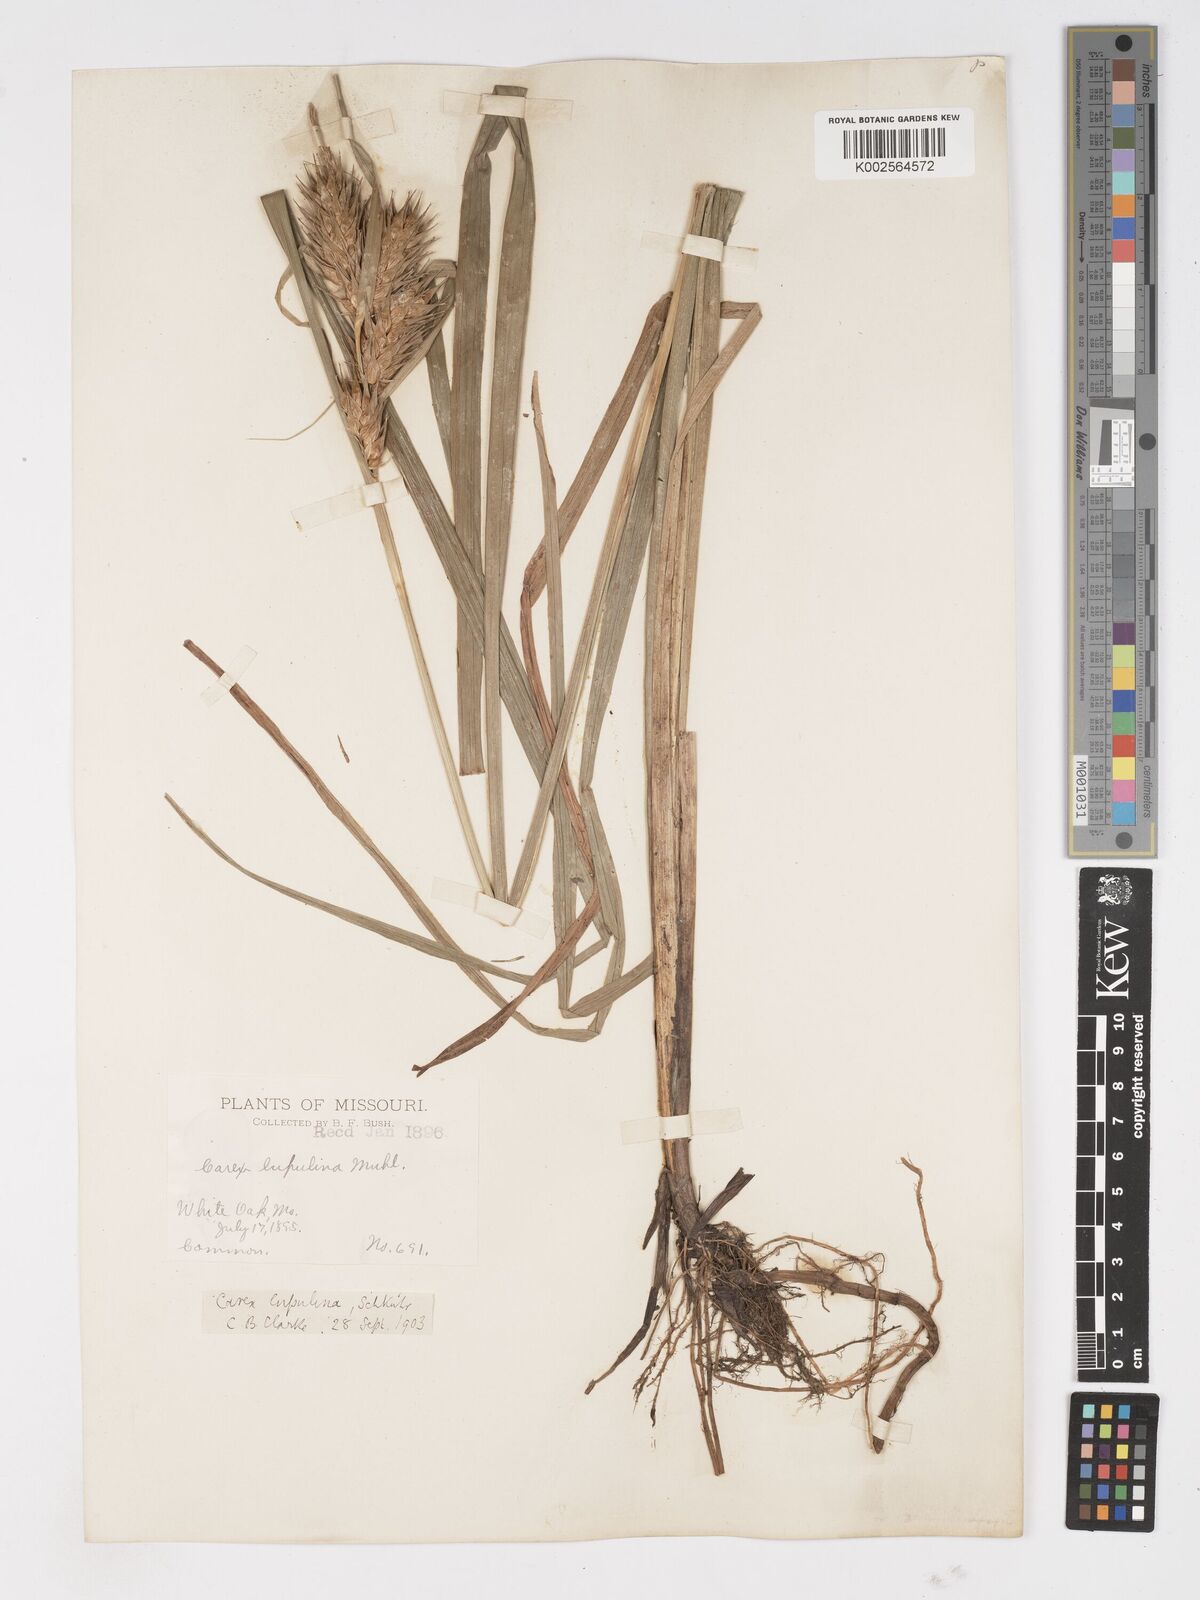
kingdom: Plantae
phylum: Tracheophyta
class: Liliopsida
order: Poales
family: Cyperaceae
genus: Carex
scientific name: Carex lupulina
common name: Hop sedge
